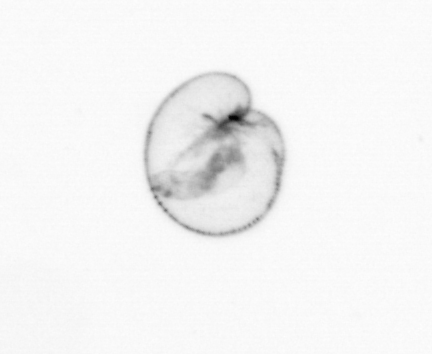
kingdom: Chromista
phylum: Myzozoa
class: Dinophyceae
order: Noctilucales
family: Noctilucaceae
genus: Noctiluca
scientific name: Noctiluca scintillans
